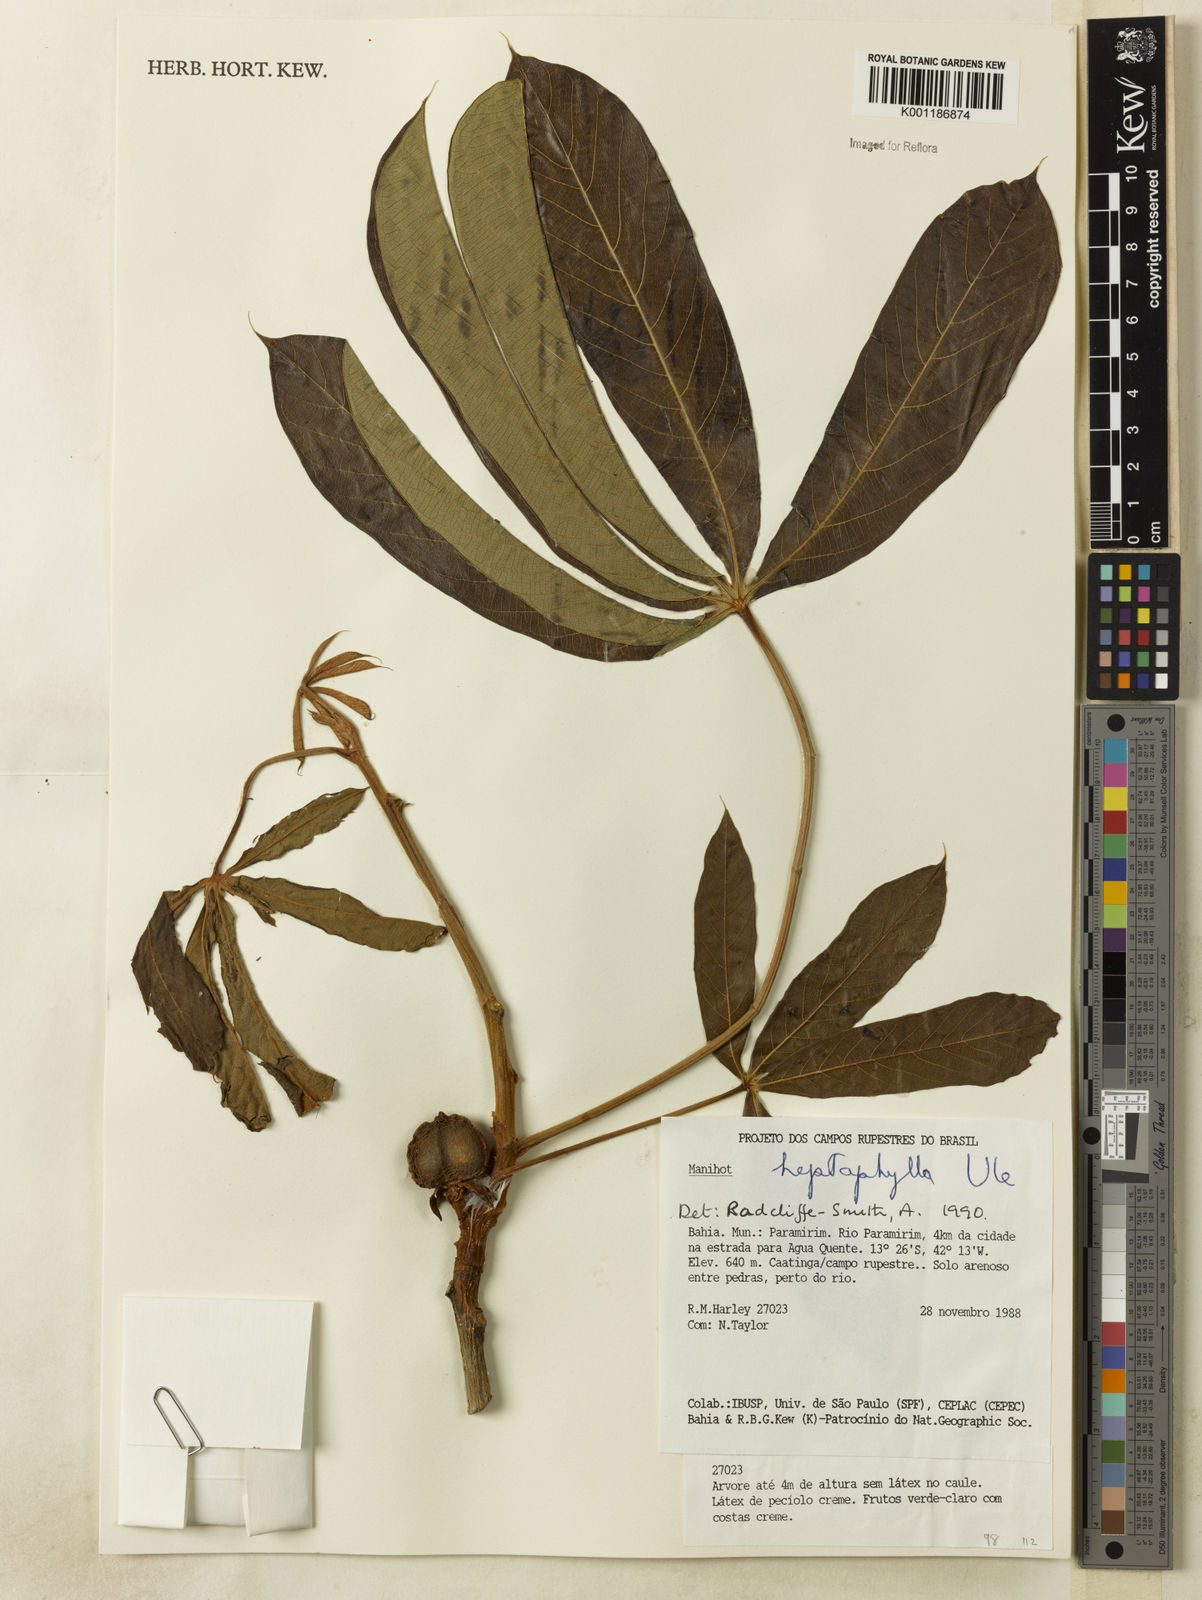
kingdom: Plantae
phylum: Tracheophyta
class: Magnoliopsida
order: Malpighiales
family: Euphorbiaceae
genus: Manihot
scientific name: Manihot heptaphylla
